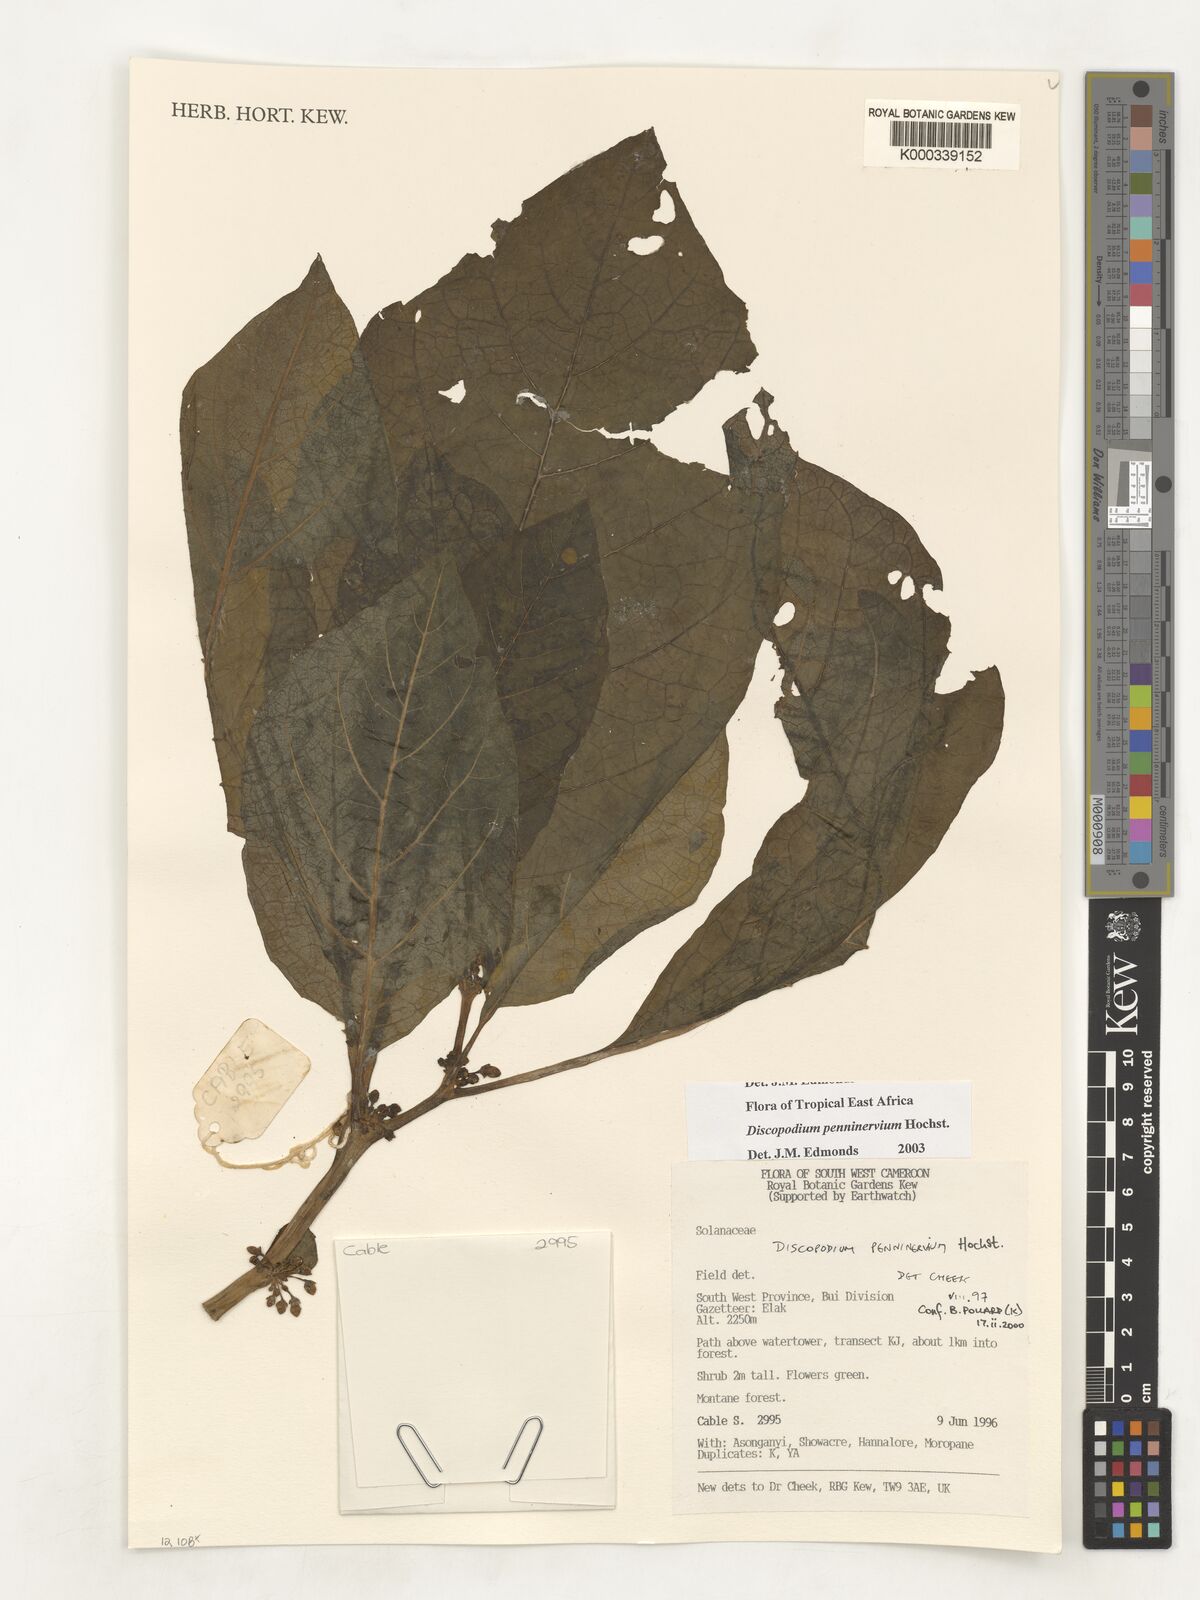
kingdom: Plantae
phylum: Tracheophyta
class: Magnoliopsida
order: Solanales
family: Solanaceae
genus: Discopodium
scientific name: Discopodium penninervium
